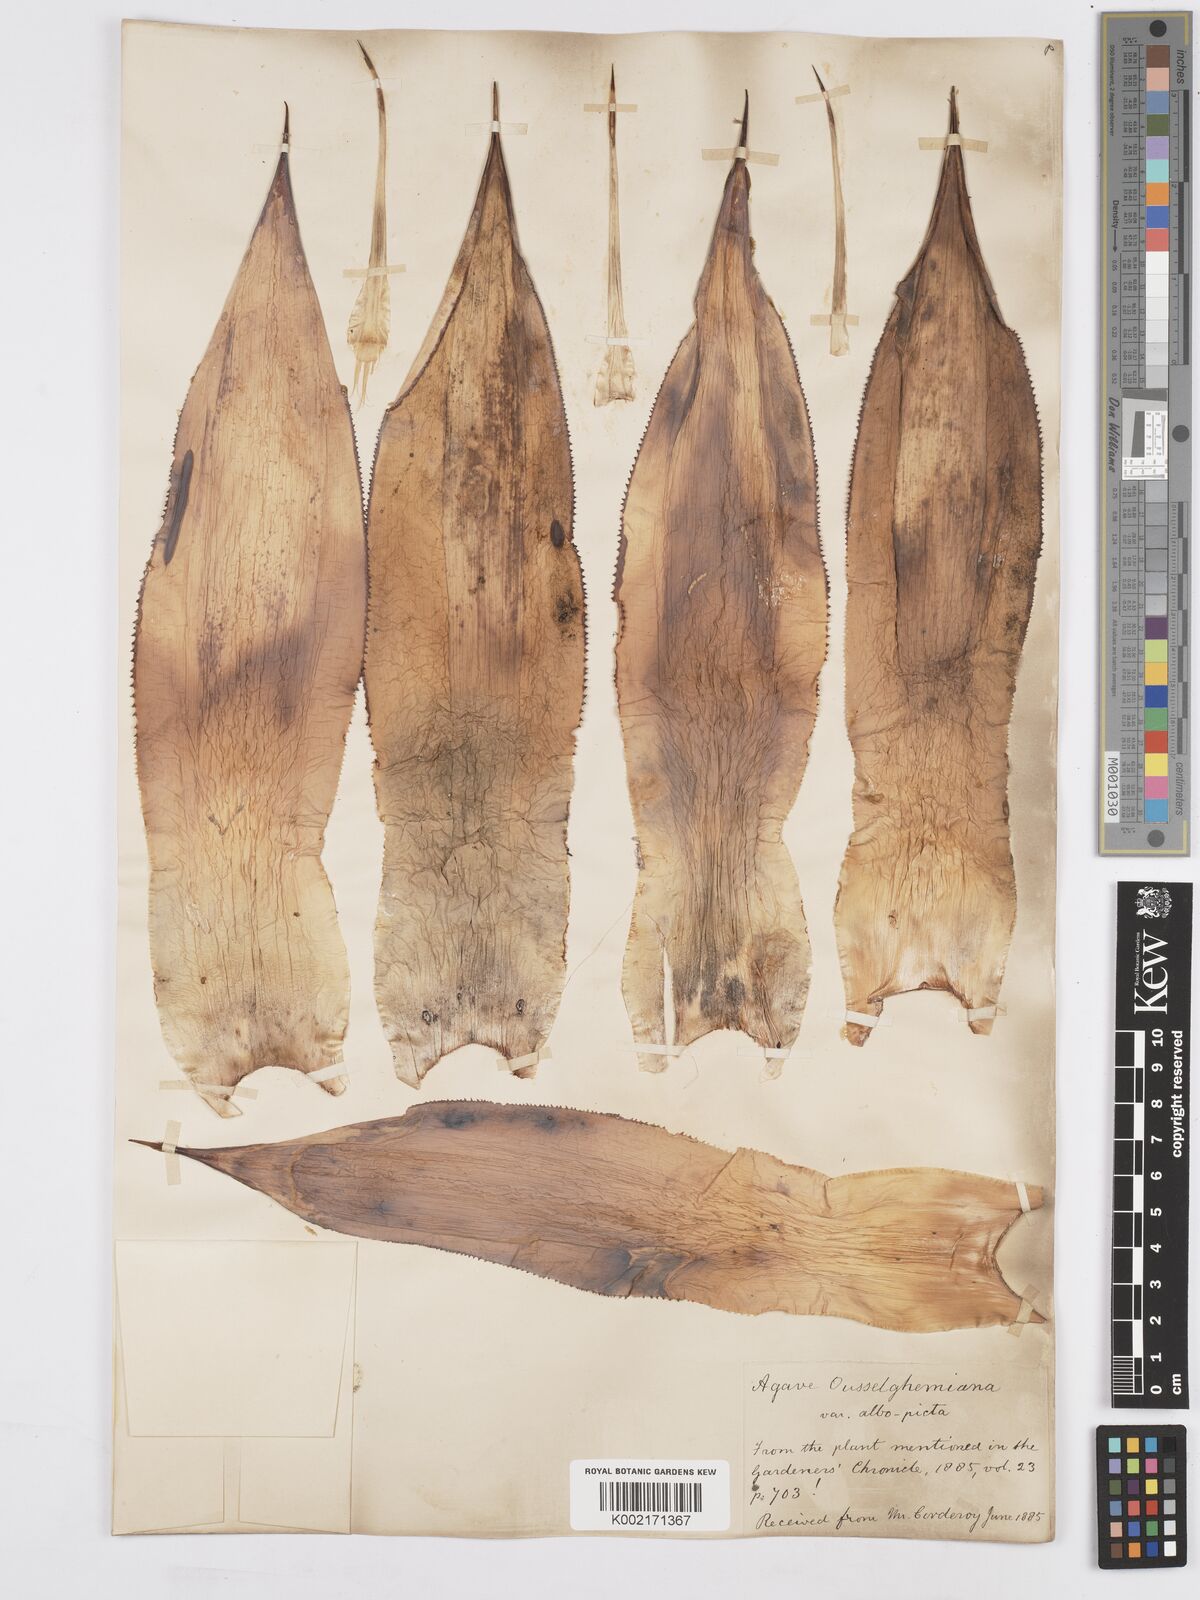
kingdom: Plantae
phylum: Tracheophyta
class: Liliopsida
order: Asparagales
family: Asparagaceae
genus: Agave
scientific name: Agave mitis
